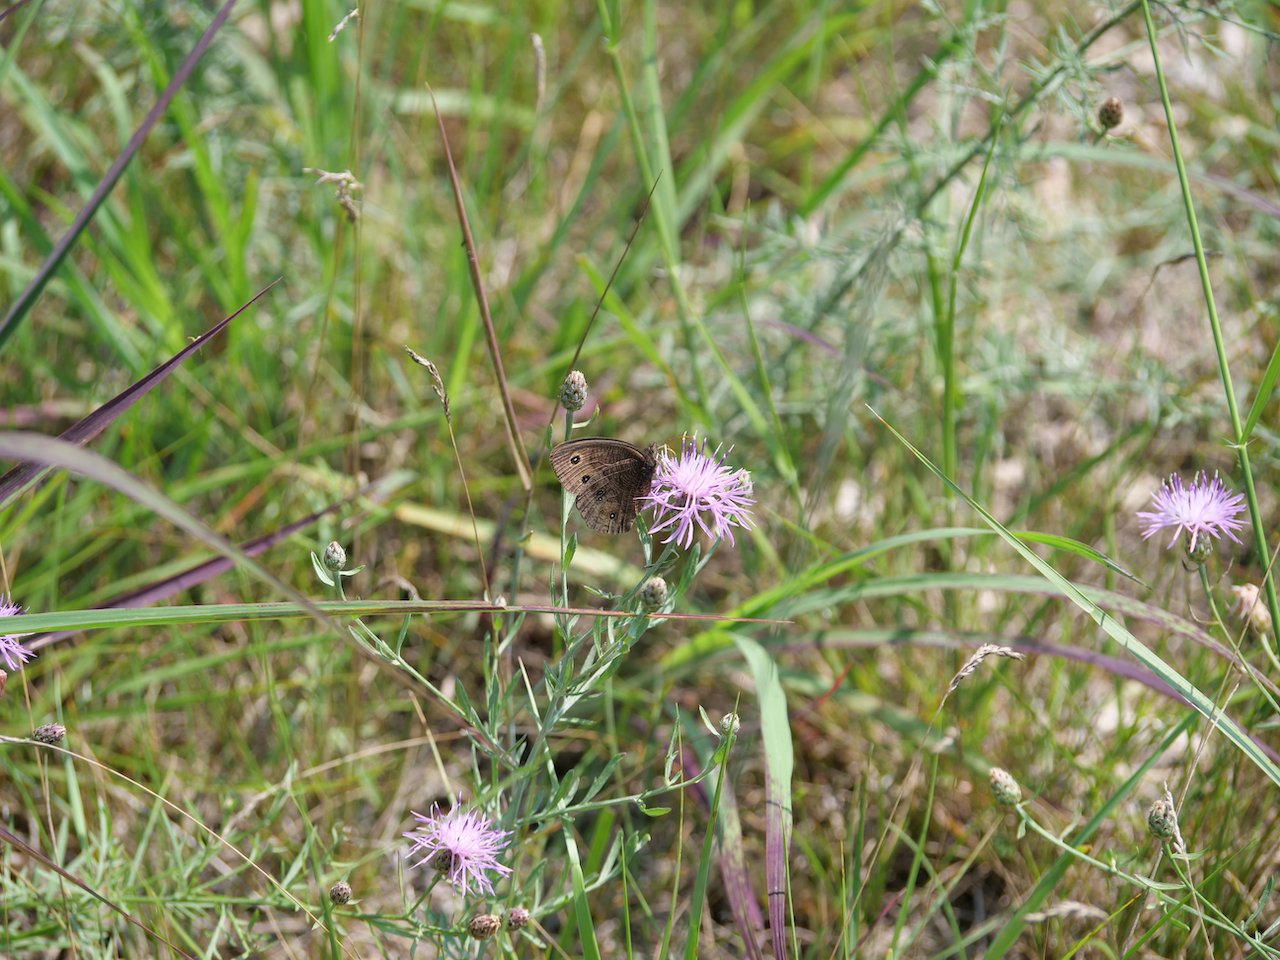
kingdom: Animalia
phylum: Arthropoda
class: Insecta
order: Lepidoptera
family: Nymphalidae
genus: Cercyonis
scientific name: Cercyonis pegala
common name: Common Wood-Nymph
